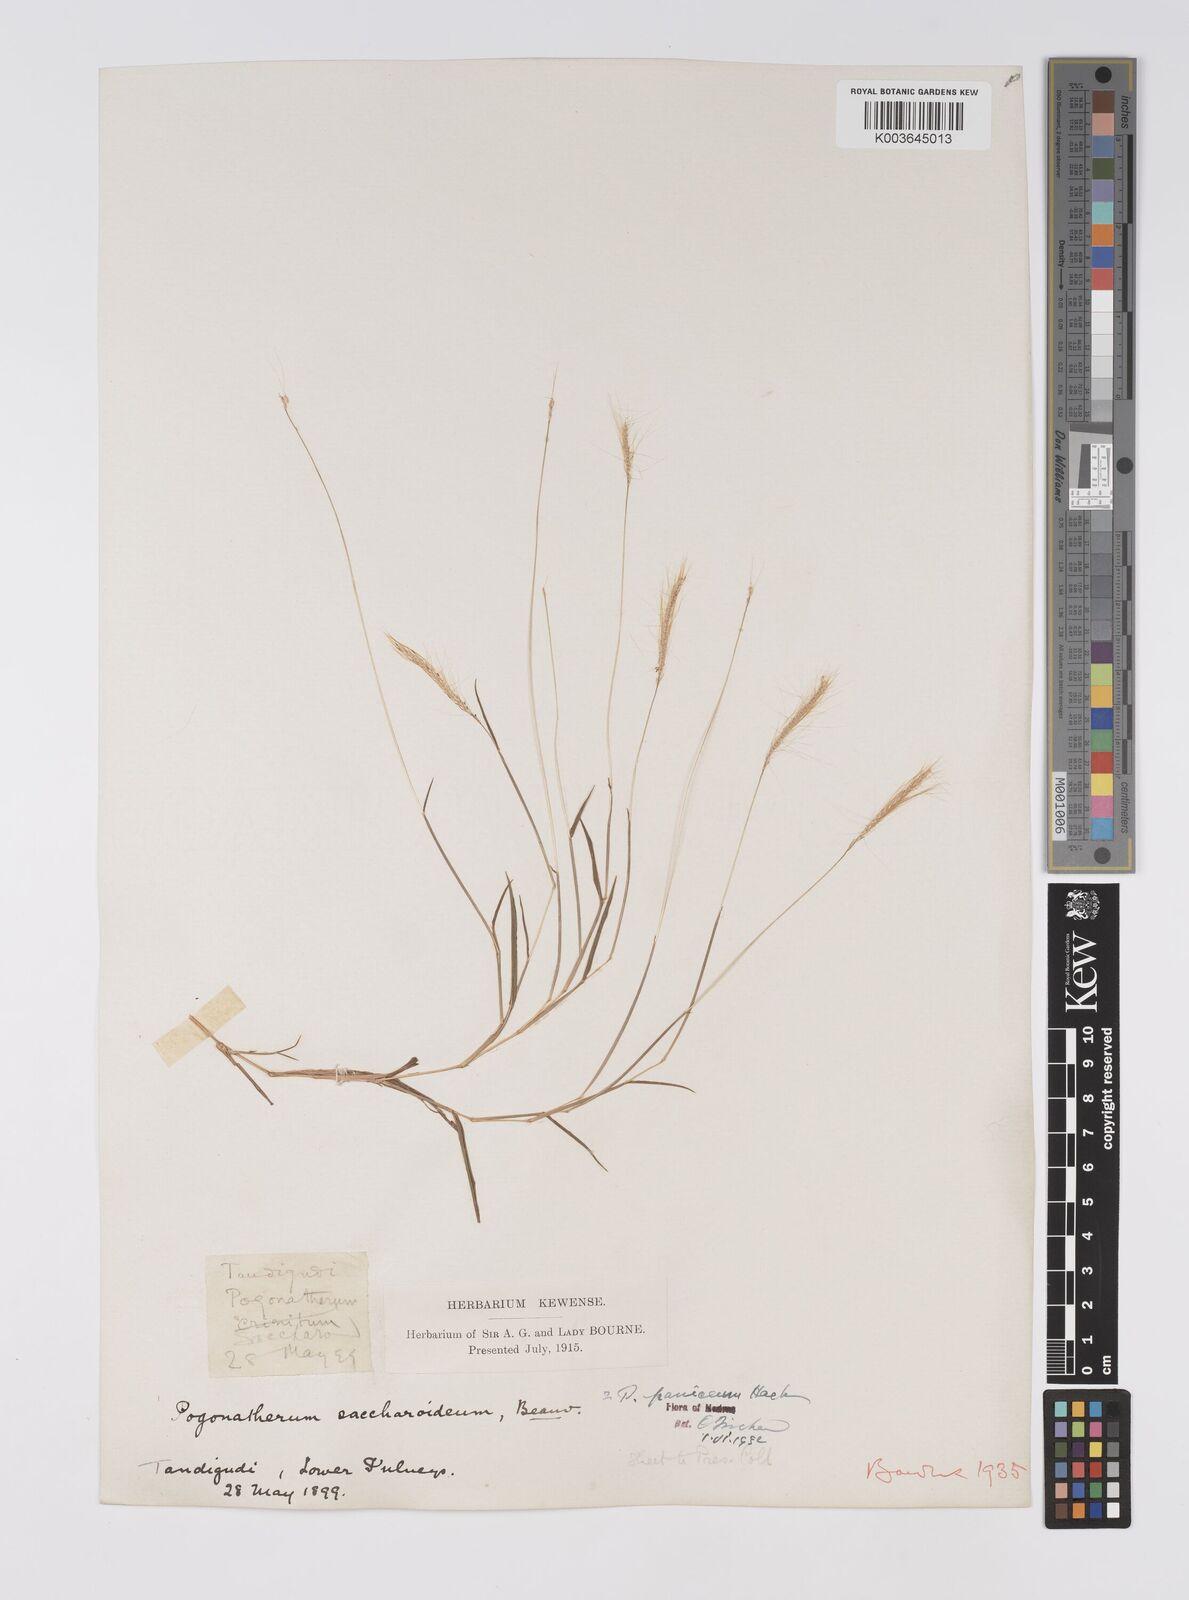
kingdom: Plantae
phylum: Tracheophyta
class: Liliopsida
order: Poales
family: Poaceae
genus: Pogonatherum
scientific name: Pogonatherum crinitum
